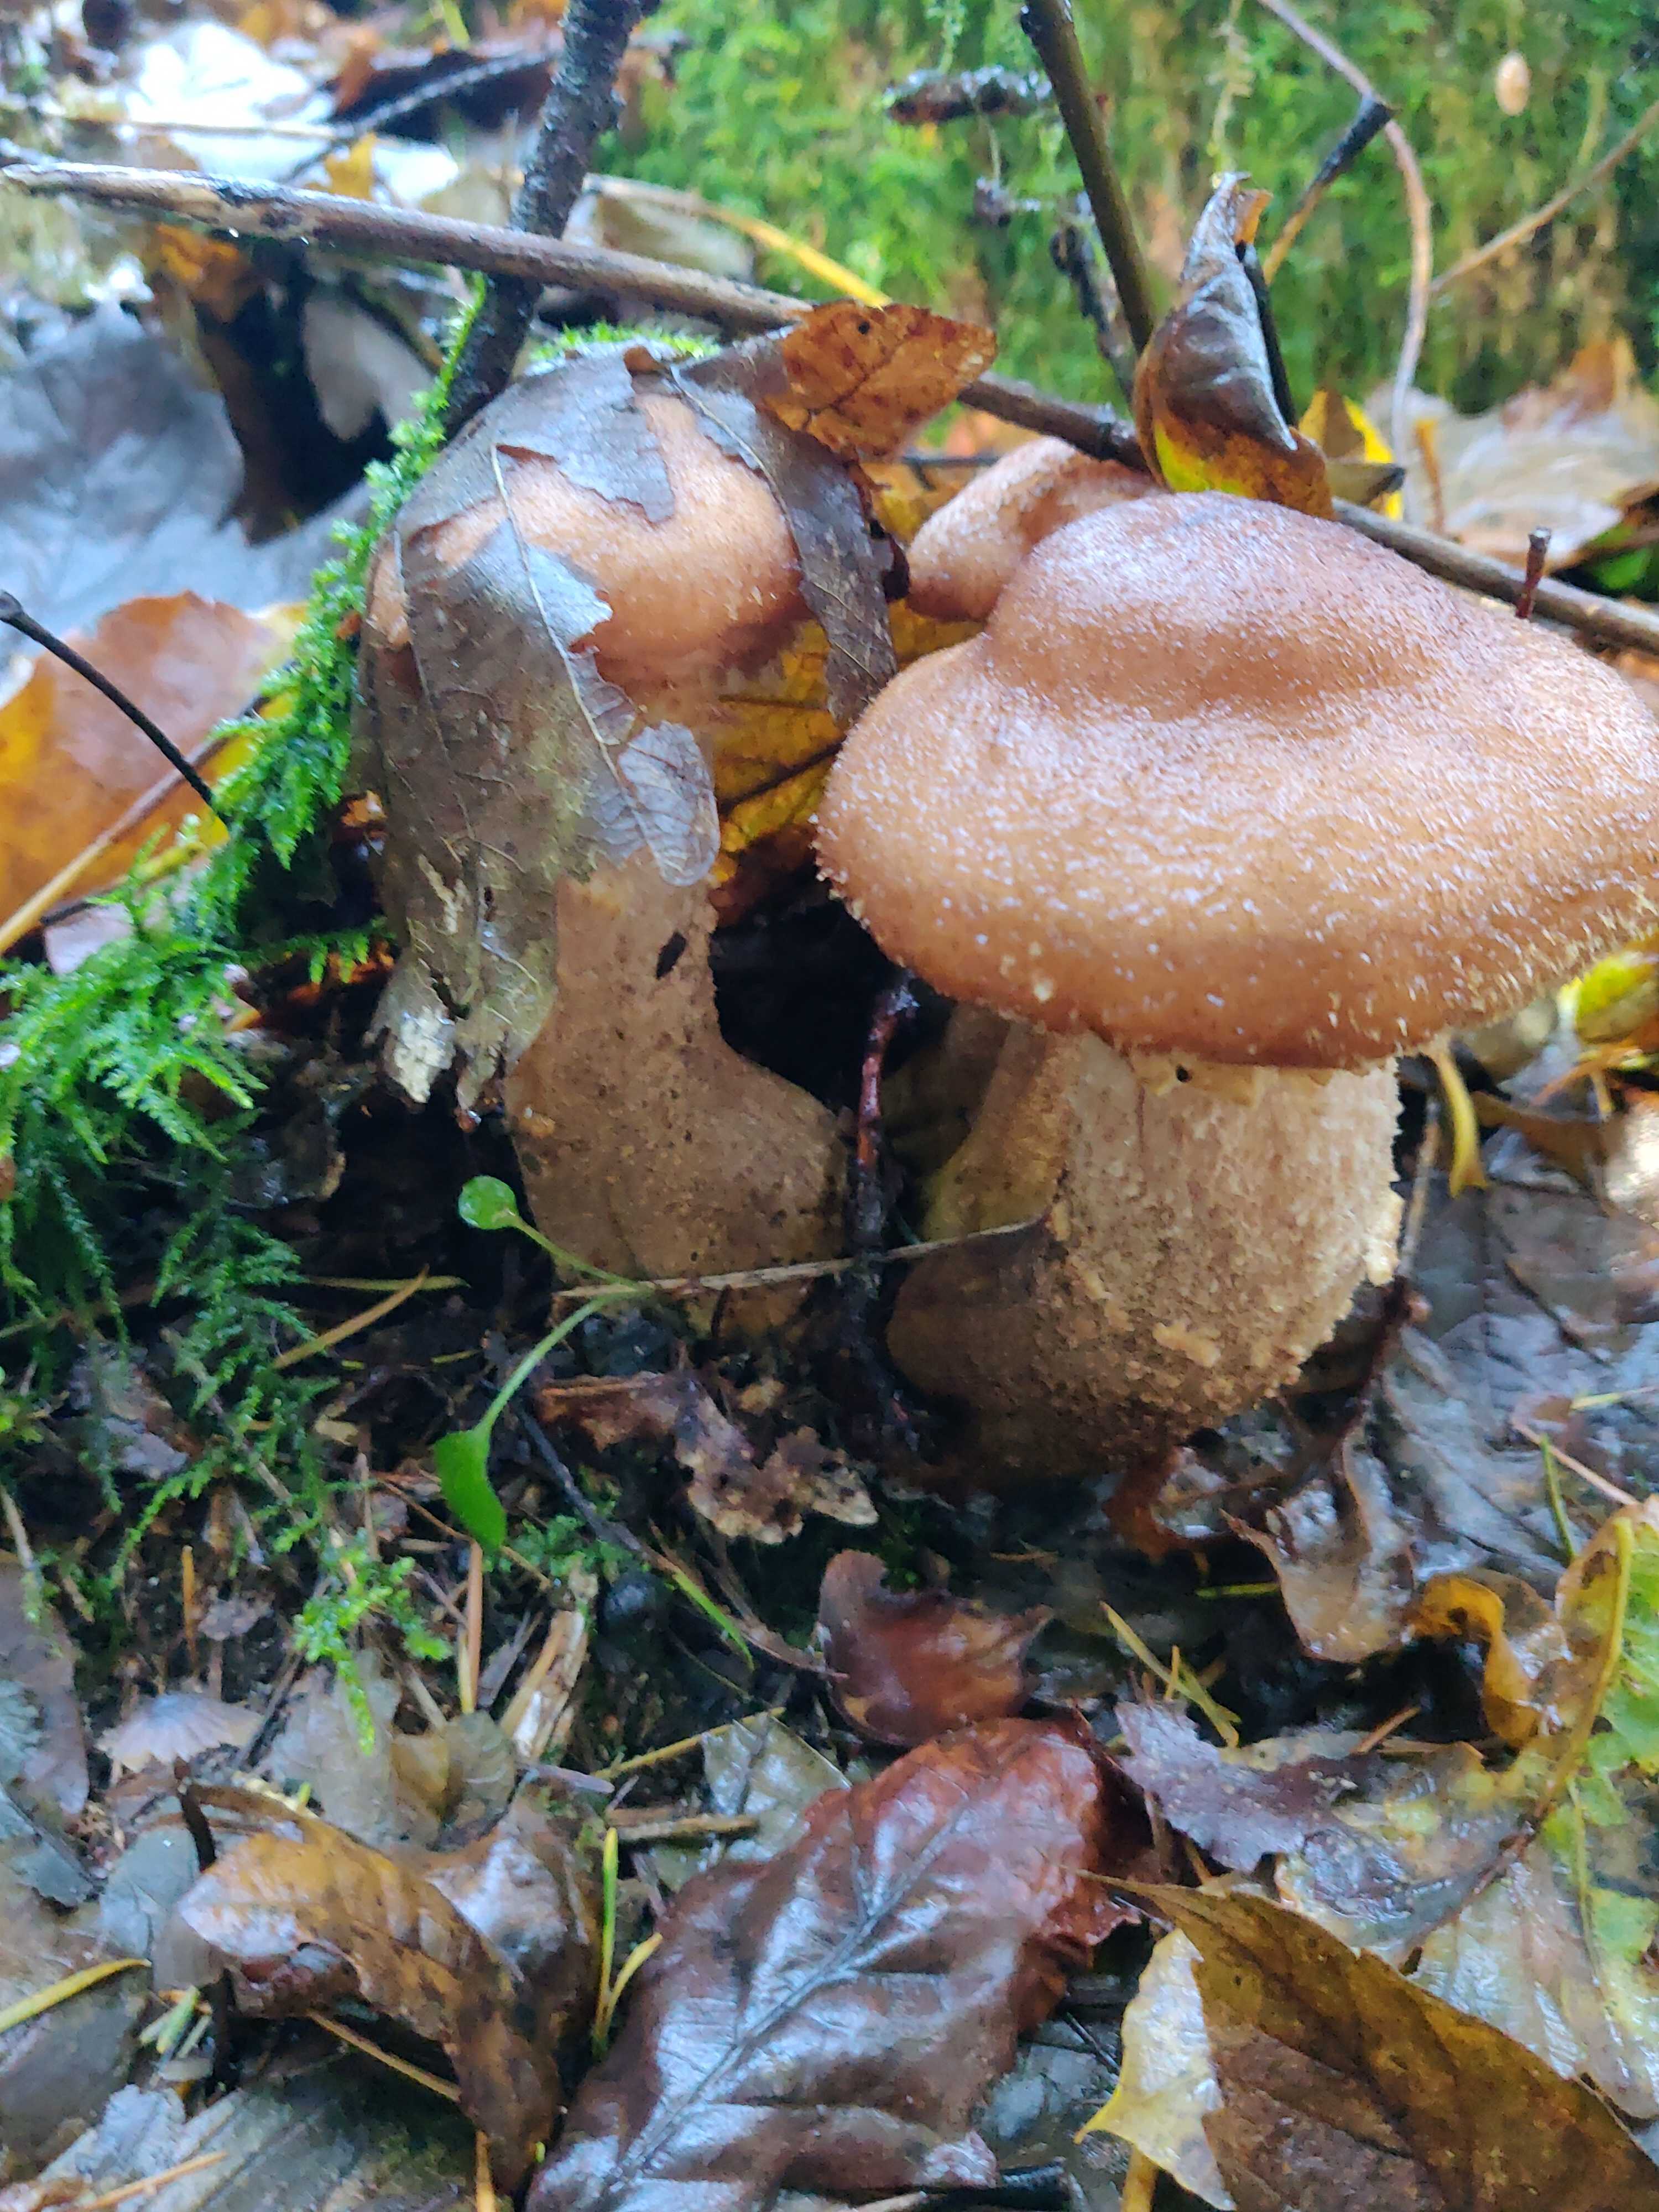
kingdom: Fungi
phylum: Basidiomycota
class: Agaricomycetes
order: Agaricales
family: Physalacriaceae
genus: Armillaria
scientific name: Armillaria lutea
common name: køllestokket honningsvamp
